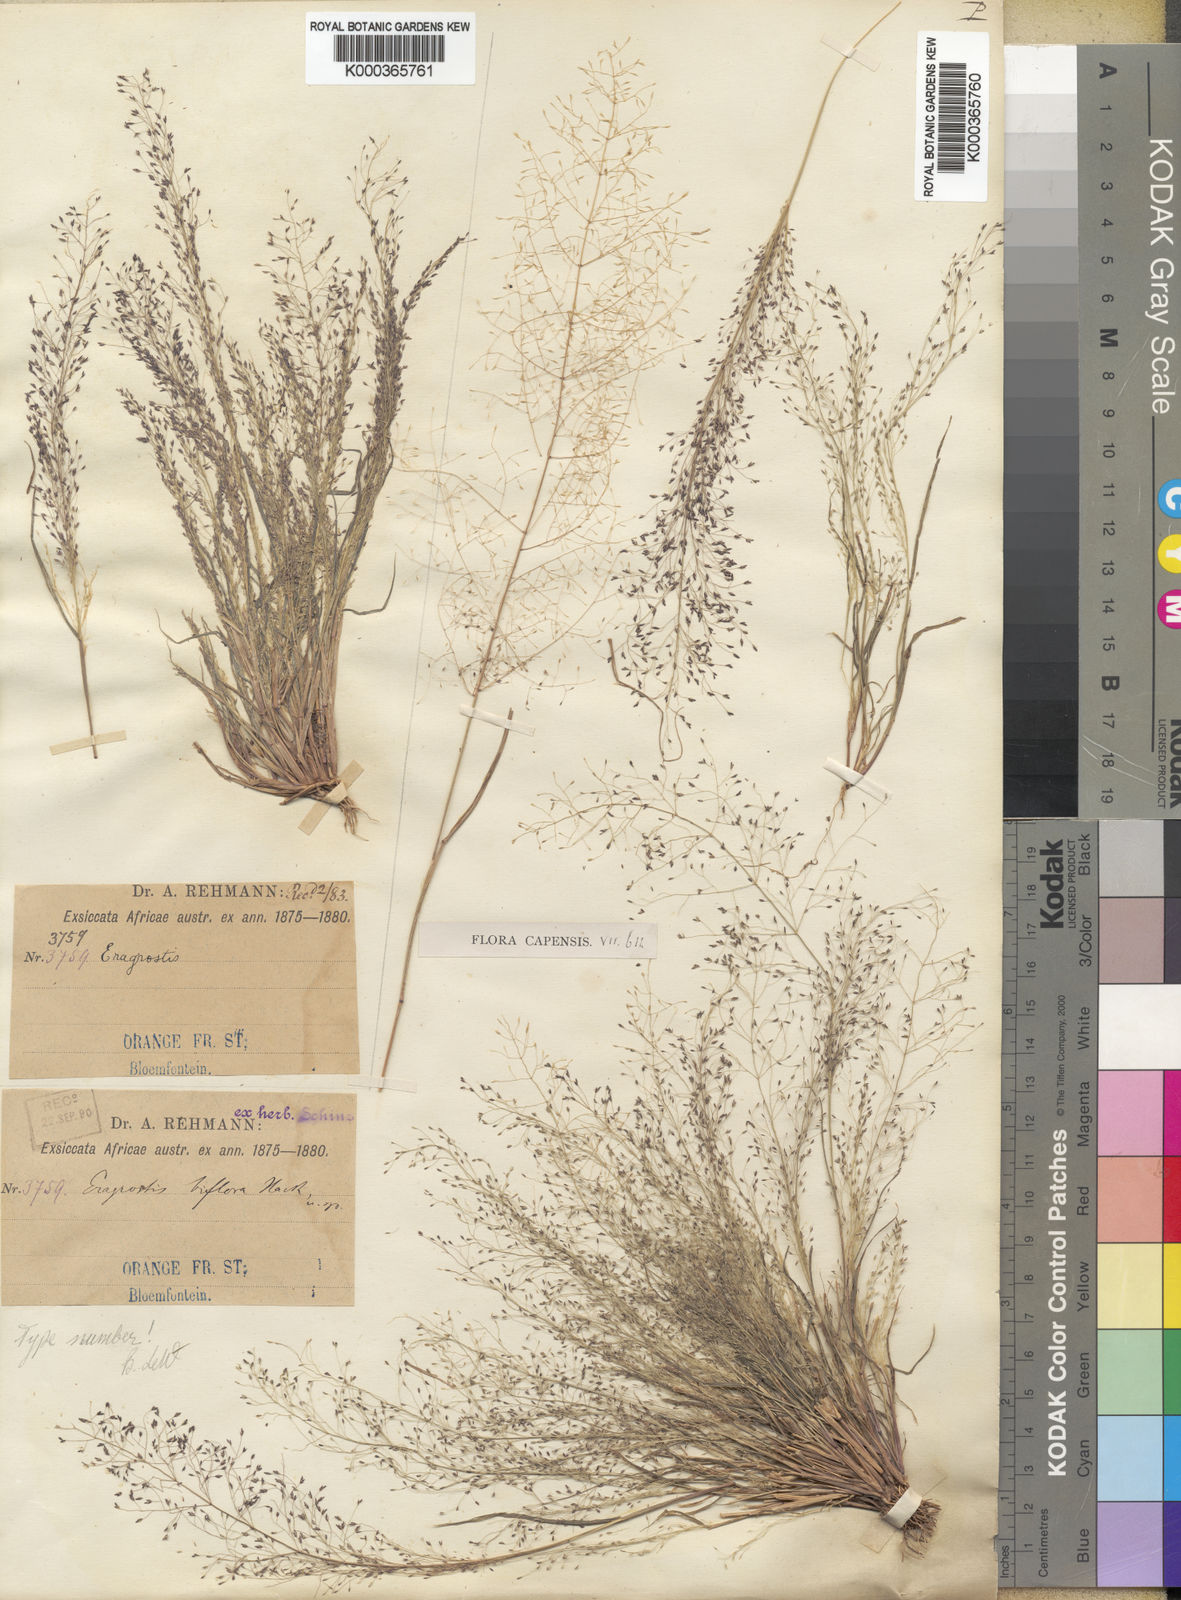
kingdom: Plantae
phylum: Tracheophyta
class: Liliopsida
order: Poales
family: Poaceae
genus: Eragrostis
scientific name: Eragrostis
